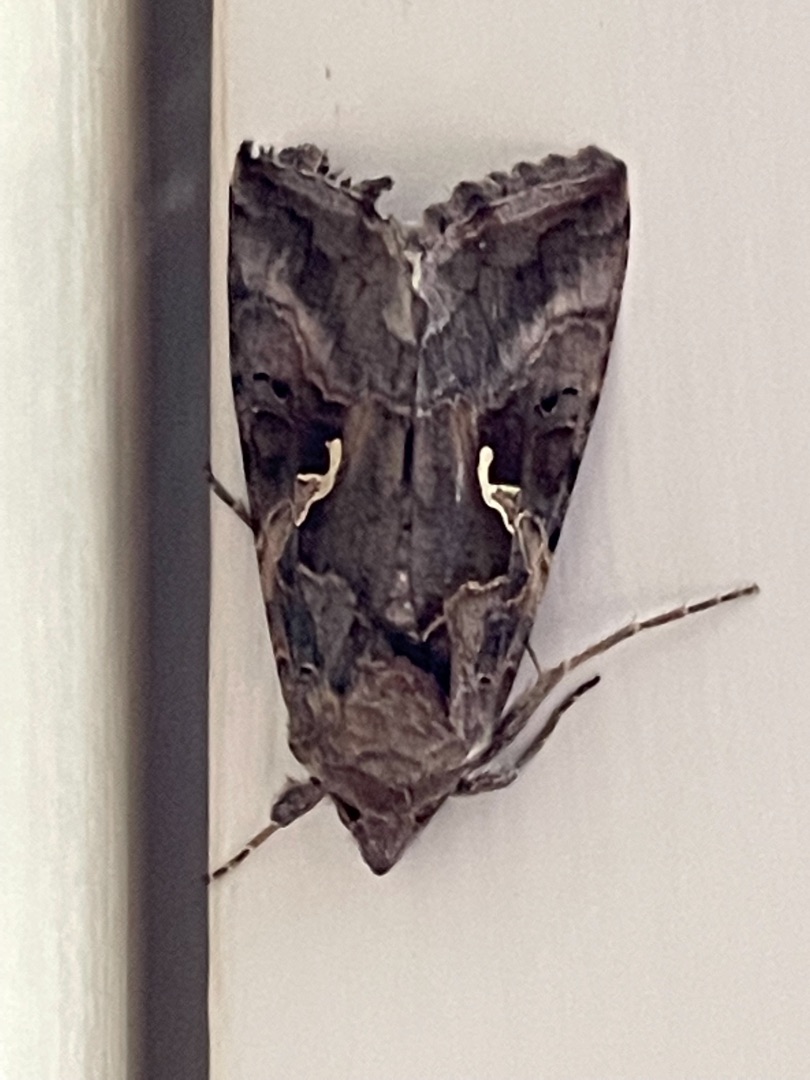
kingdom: Animalia
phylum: Arthropoda
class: Insecta
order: Lepidoptera
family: Noctuidae
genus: Autographa
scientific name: Autographa gamma
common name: Gammaugle
